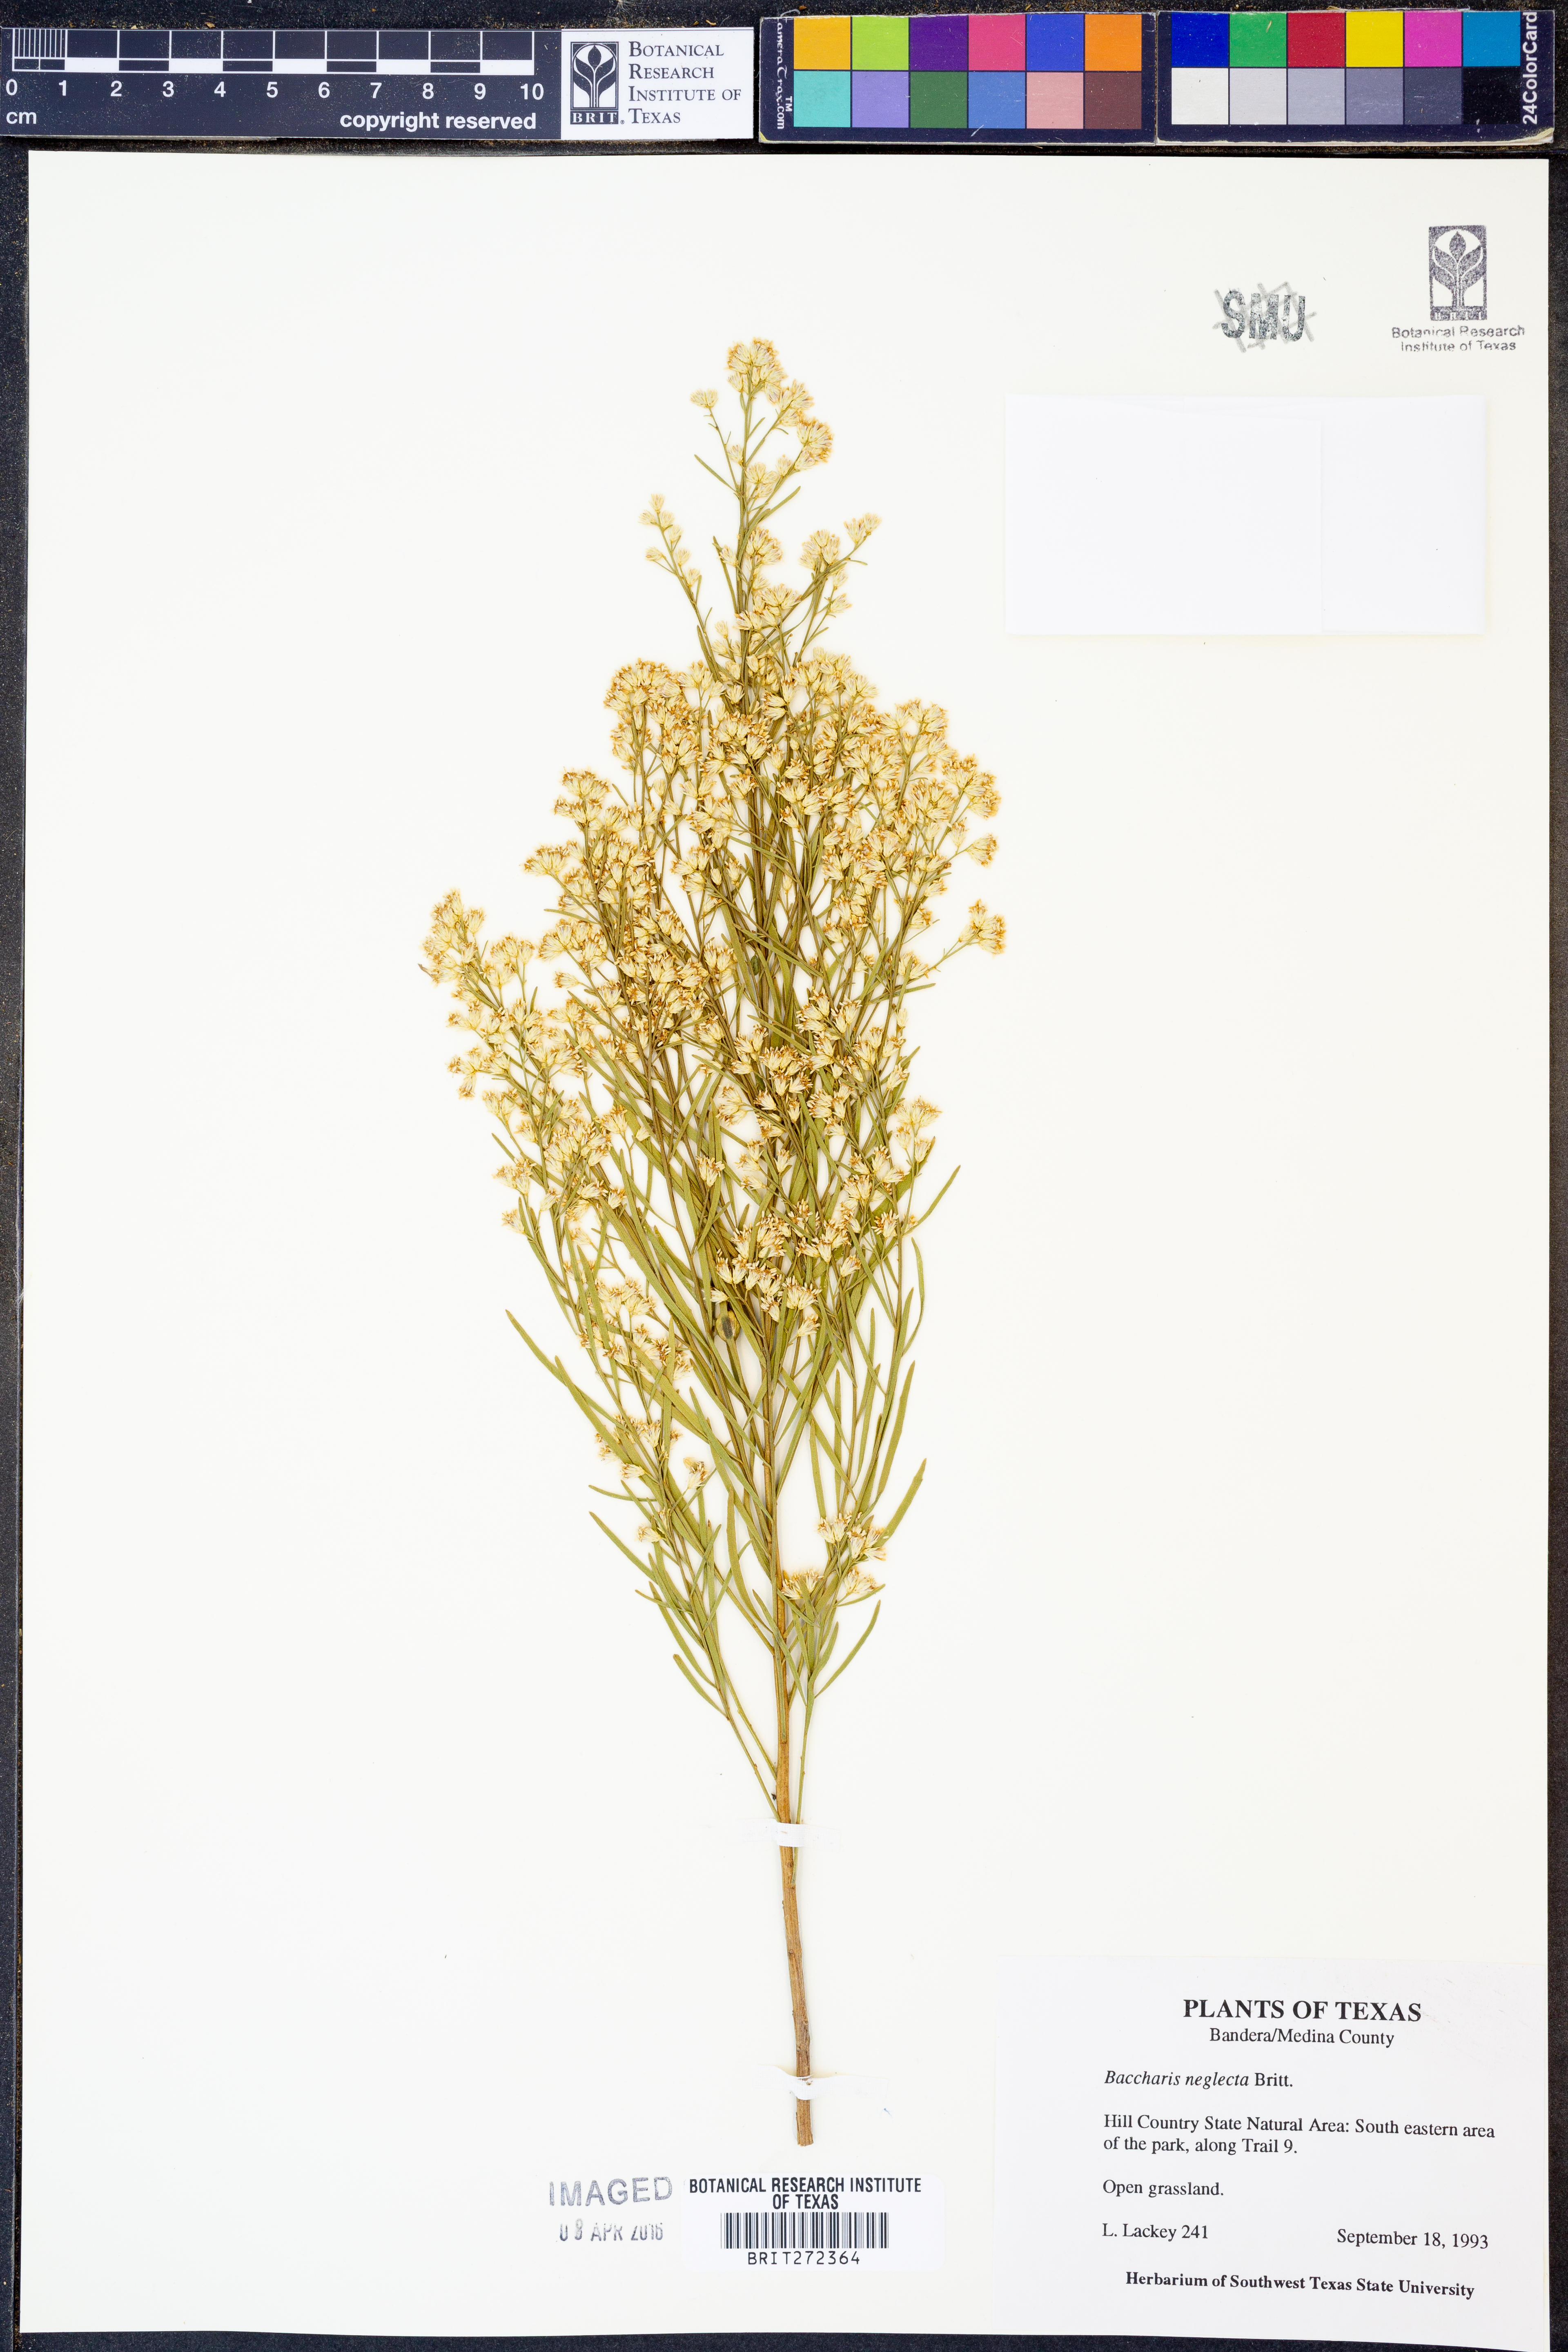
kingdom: Plantae
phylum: Tracheophyta
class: Magnoliopsida
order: Asterales
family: Asteraceae
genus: Baccharis
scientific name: Baccharis neglecta
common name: Roosevelt-weed
